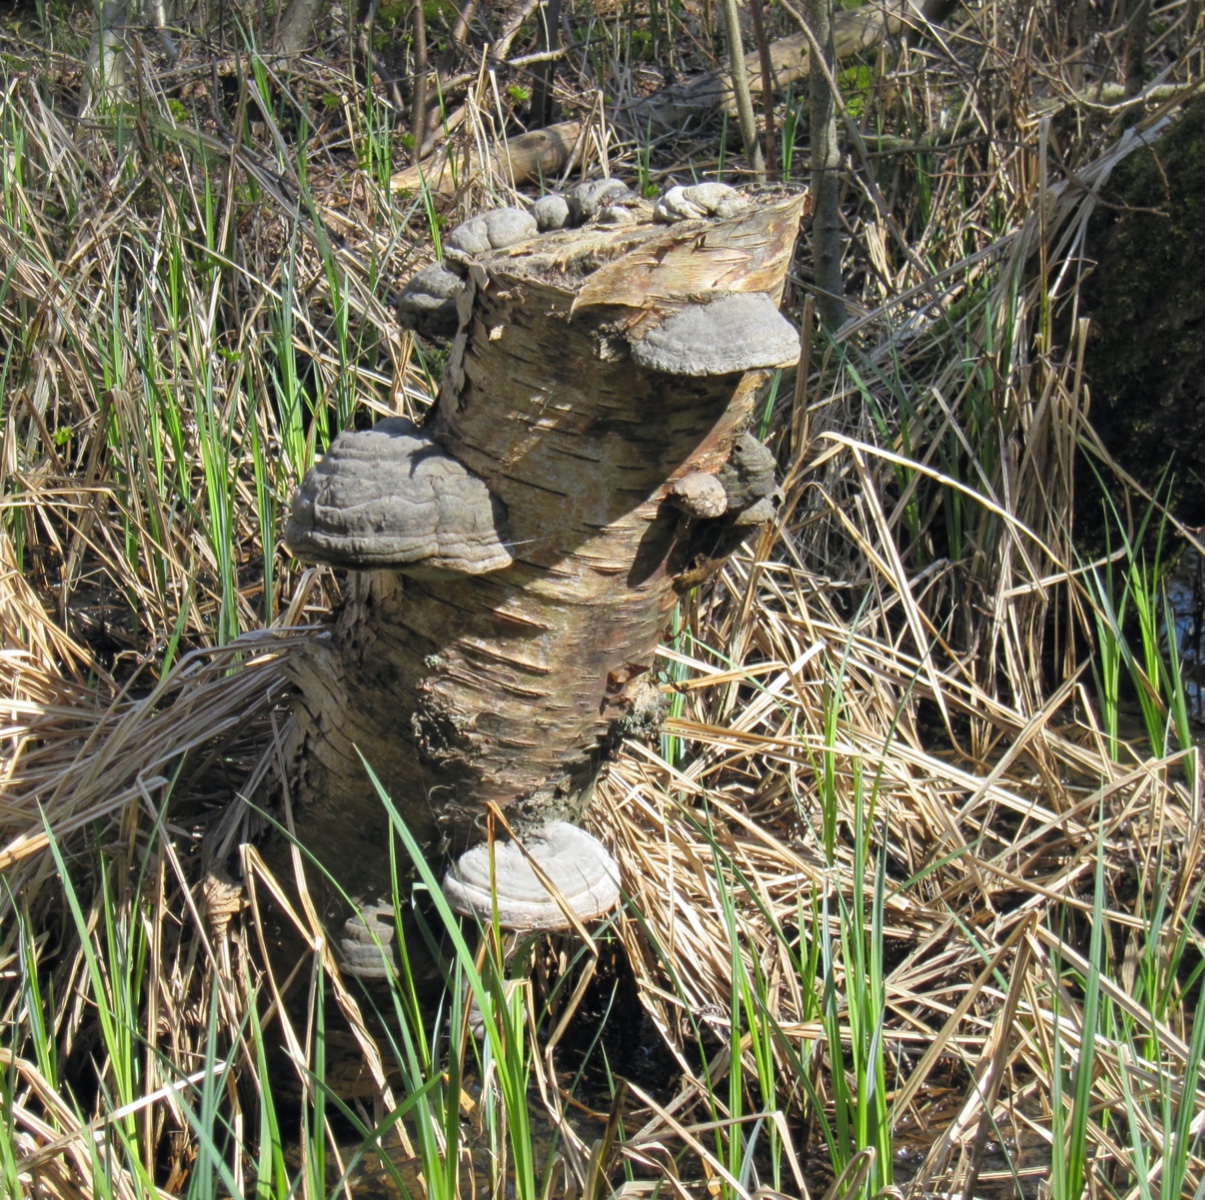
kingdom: Fungi
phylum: Basidiomycota
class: Agaricomycetes
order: Polyporales
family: Polyporaceae
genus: Fomes
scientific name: Fomes fomentarius
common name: tøndersvamp
